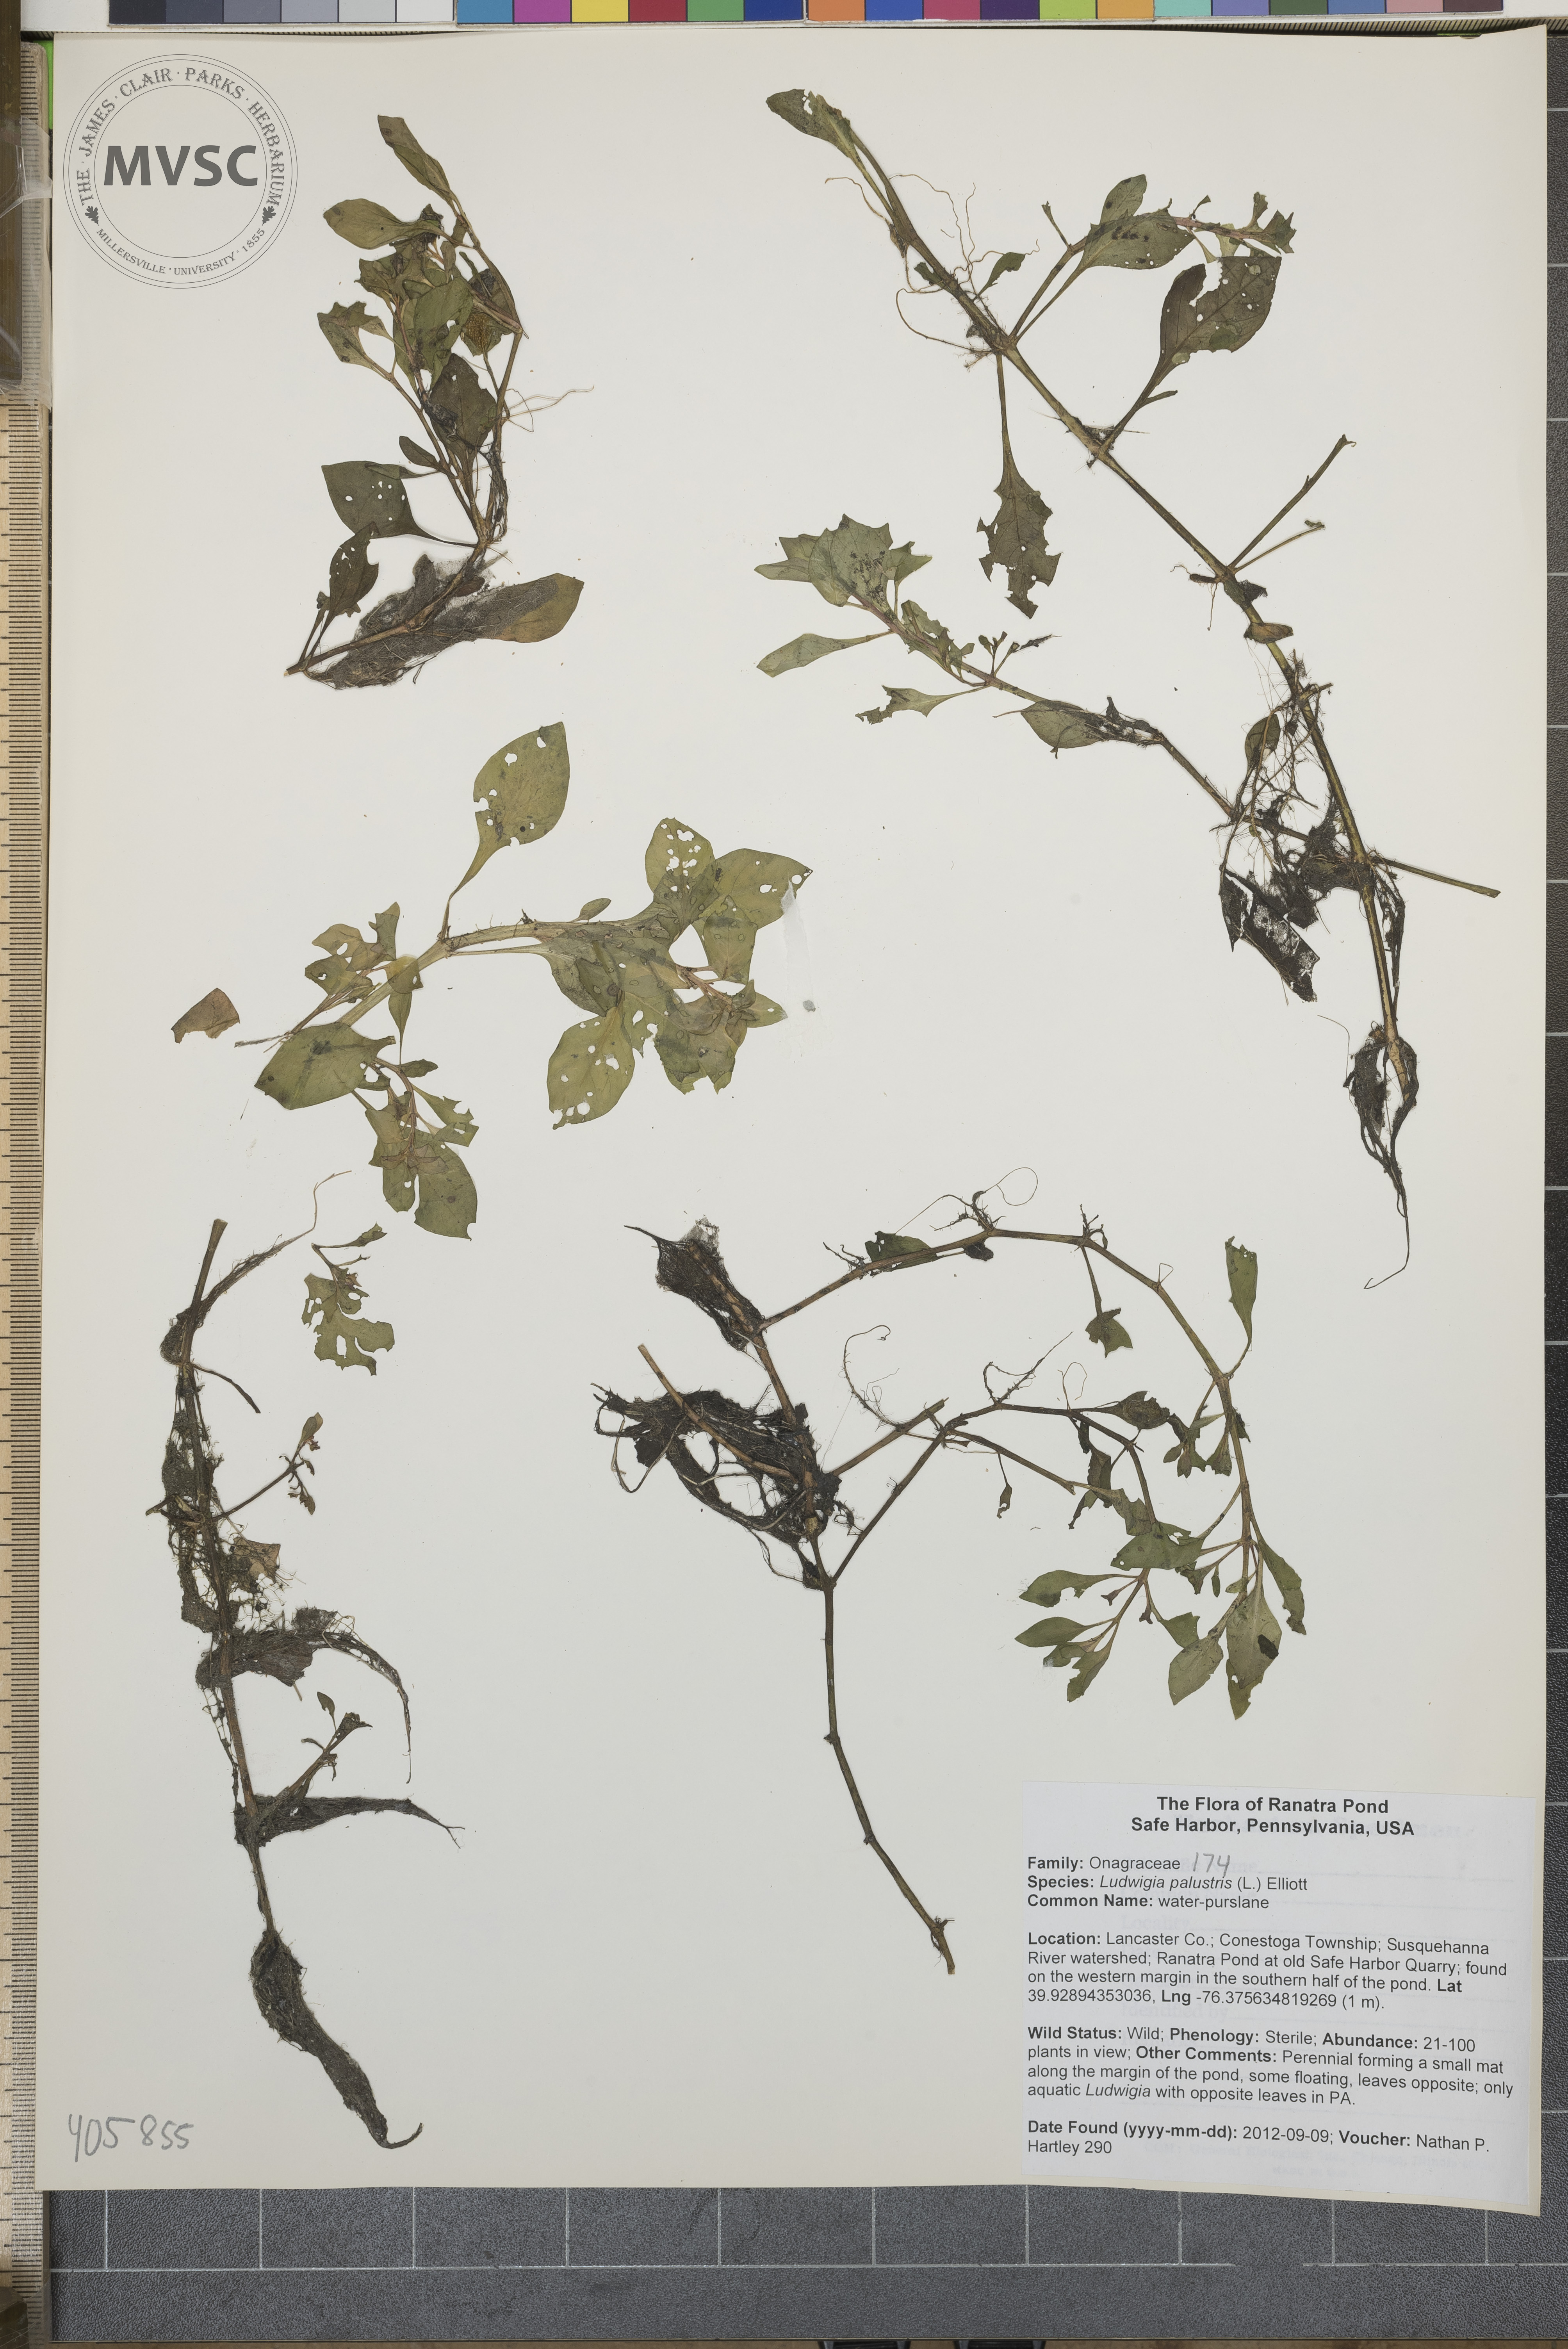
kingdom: Plantae
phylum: Tracheophyta
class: Magnoliopsida
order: Myrtales
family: Onagraceae
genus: Ludwigia
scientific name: Ludwigia palustris
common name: water-purslane
